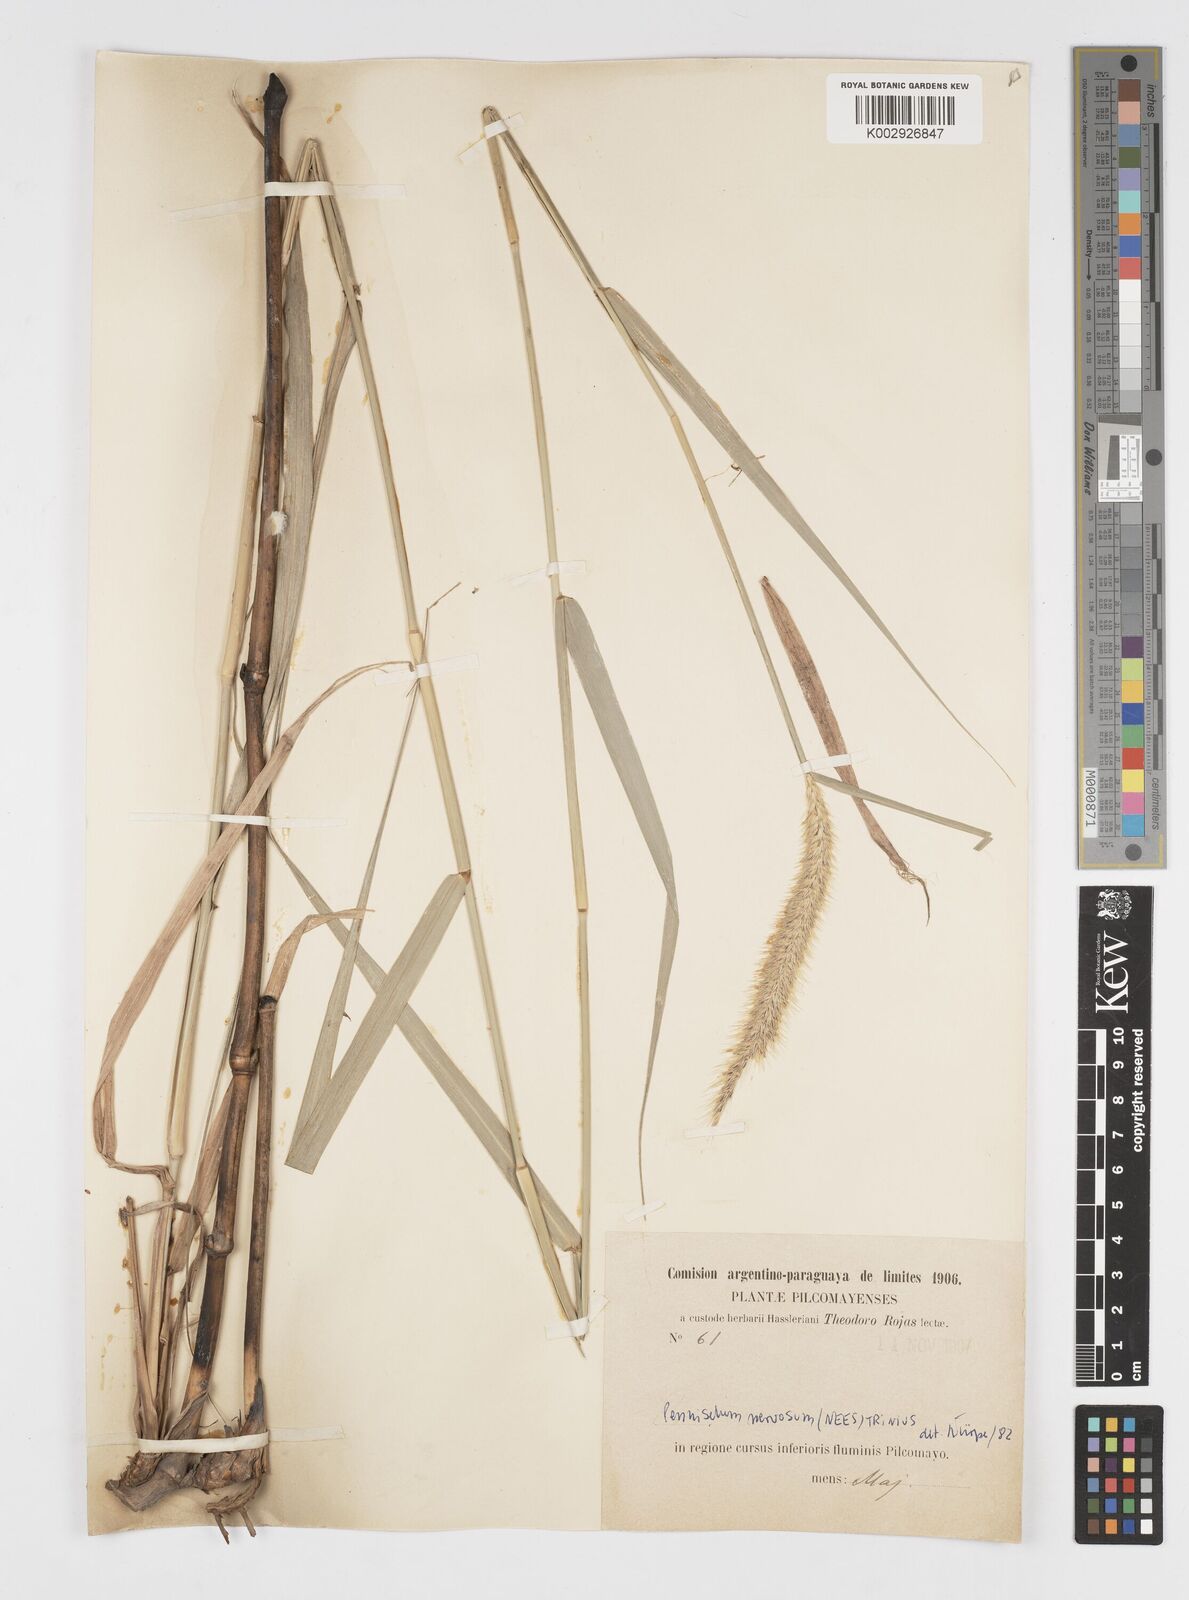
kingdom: Plantae
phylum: Tracheophyta
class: Liliopsida
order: Poales
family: Poaceae
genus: Cenchrus
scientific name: Cenchrus nervosus
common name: Bentspike fountaingrass
